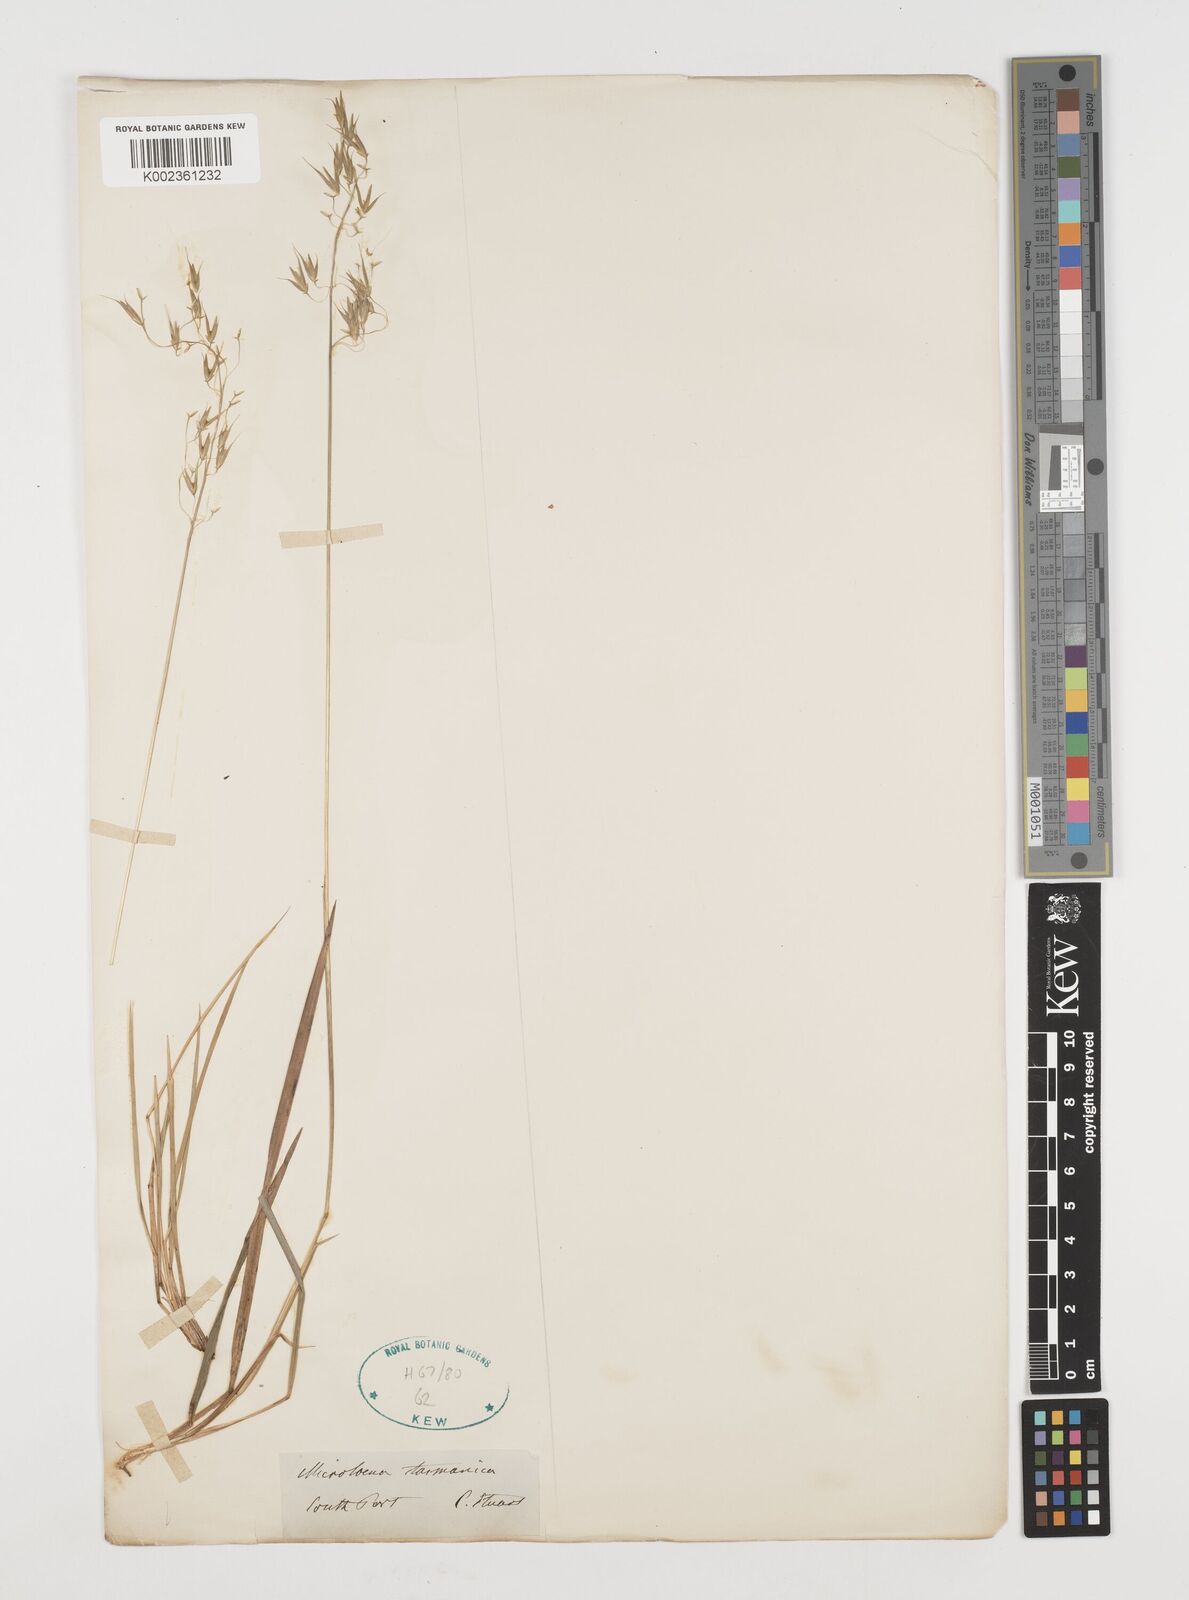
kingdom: Plantae
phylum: Tracheophyta
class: Liliopsida
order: Poales
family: Poaceae
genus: Microlaena
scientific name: Microlaena tasmanica
